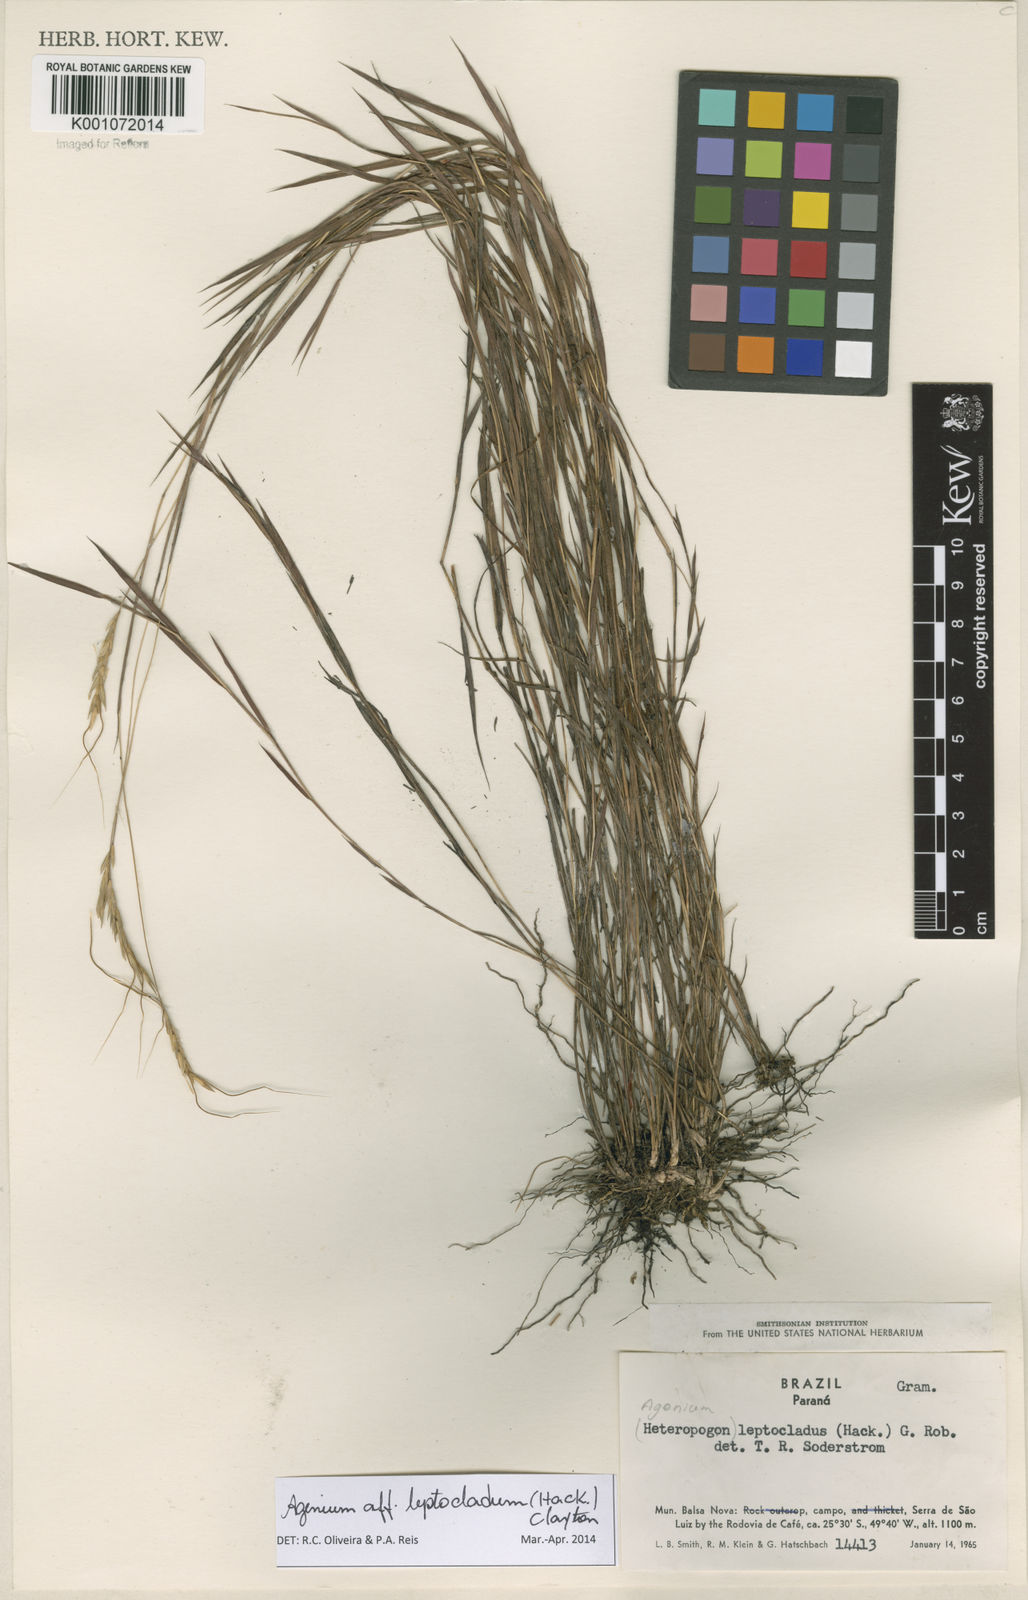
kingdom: Plantae
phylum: Tracheophyta
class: Liliopsida
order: Poales
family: Poaceae
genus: Agenium
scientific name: Agenium leptocladum
